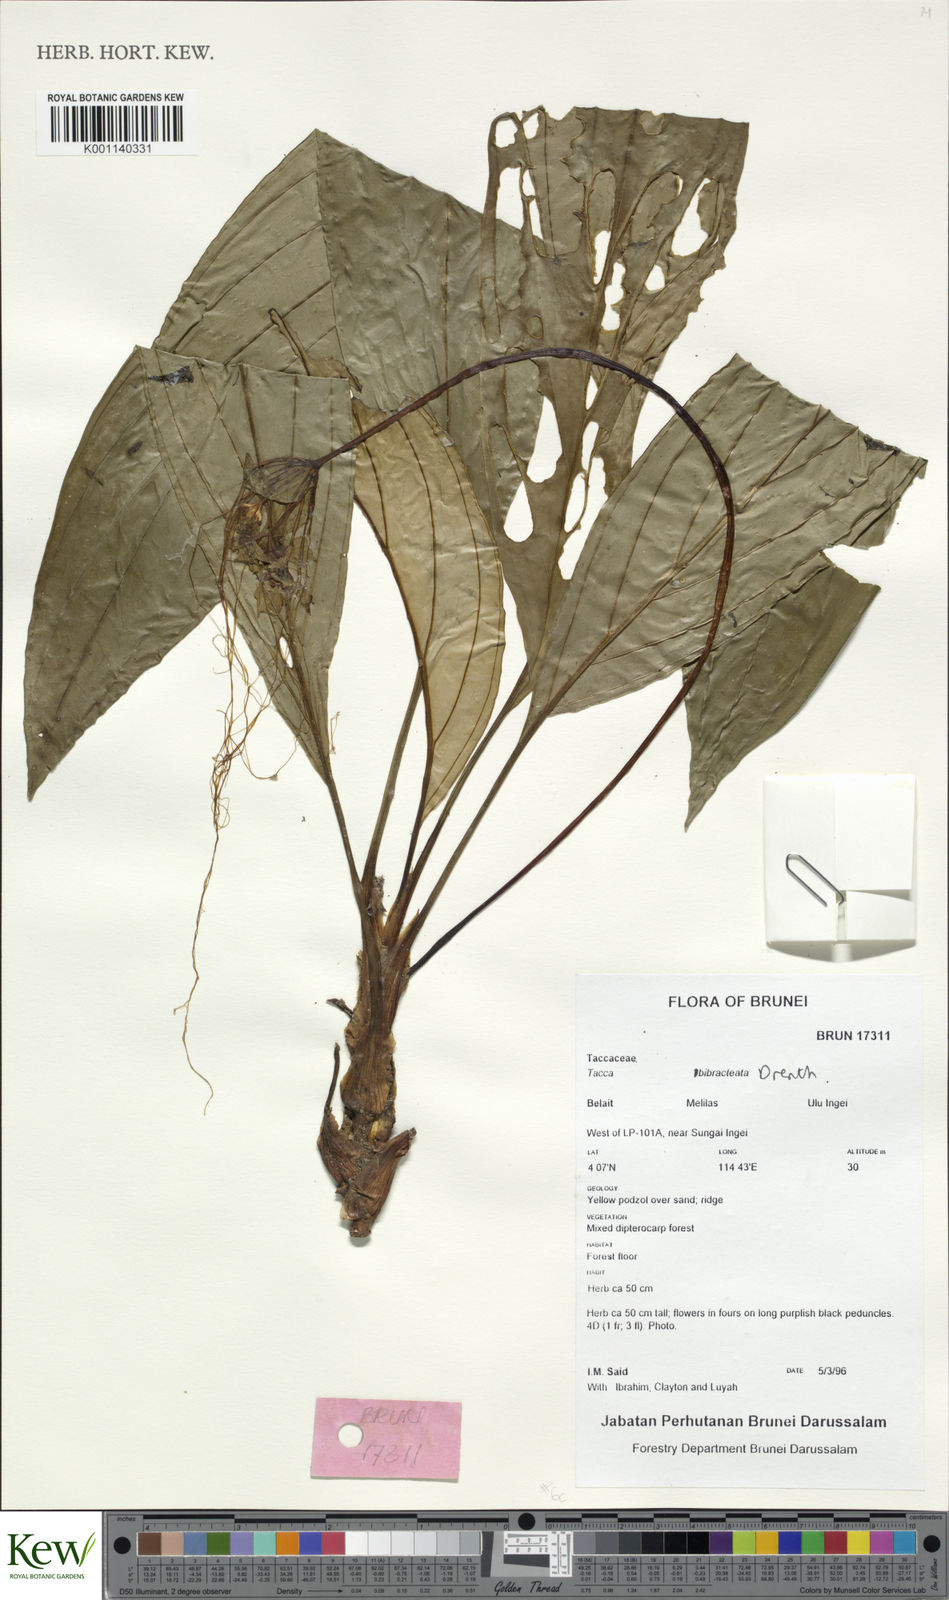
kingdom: Plantae
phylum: Tracheophyta
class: Liliopsida
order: Dioscoreales
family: Dioscoreaceae
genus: Tacca
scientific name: Tacca bibracteata
